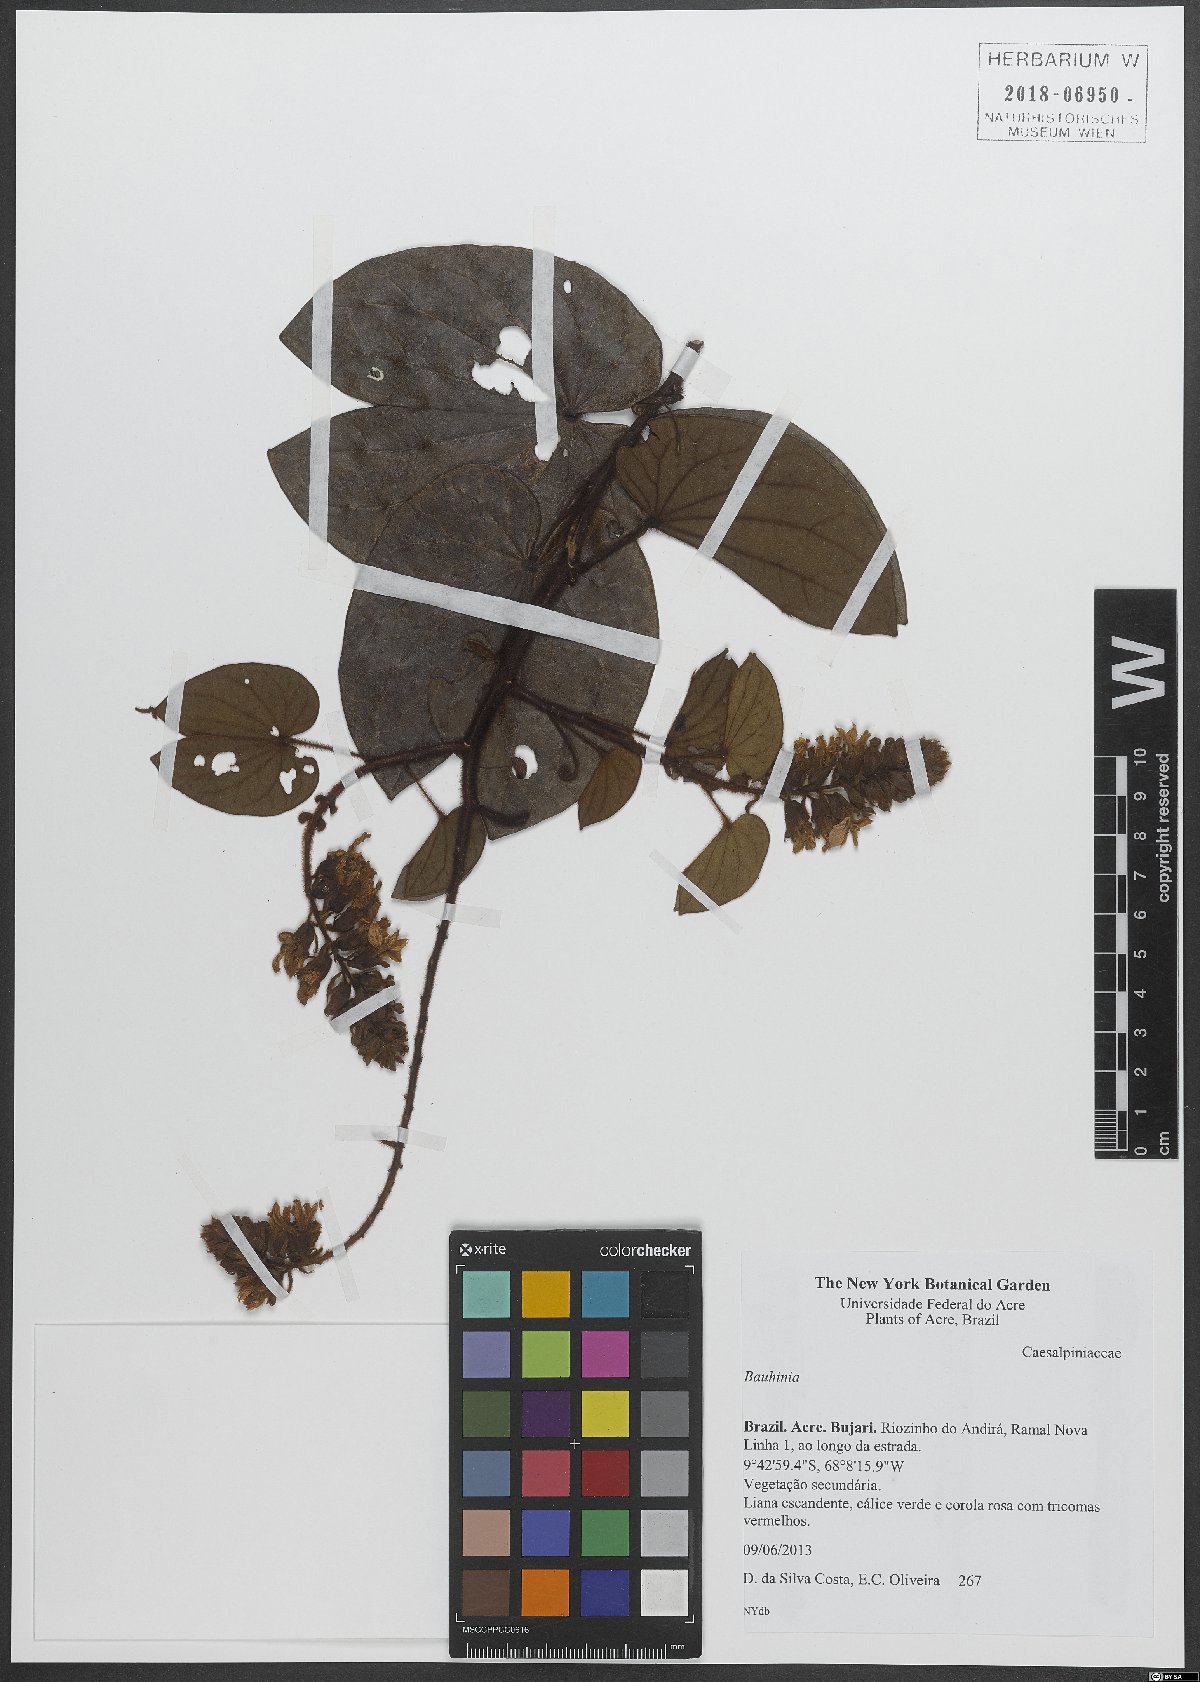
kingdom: Plantae
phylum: Tracheophyta
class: Magnoliopsida
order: Fabales
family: Fabaceae
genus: Bauhinia
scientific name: Bauhinia
